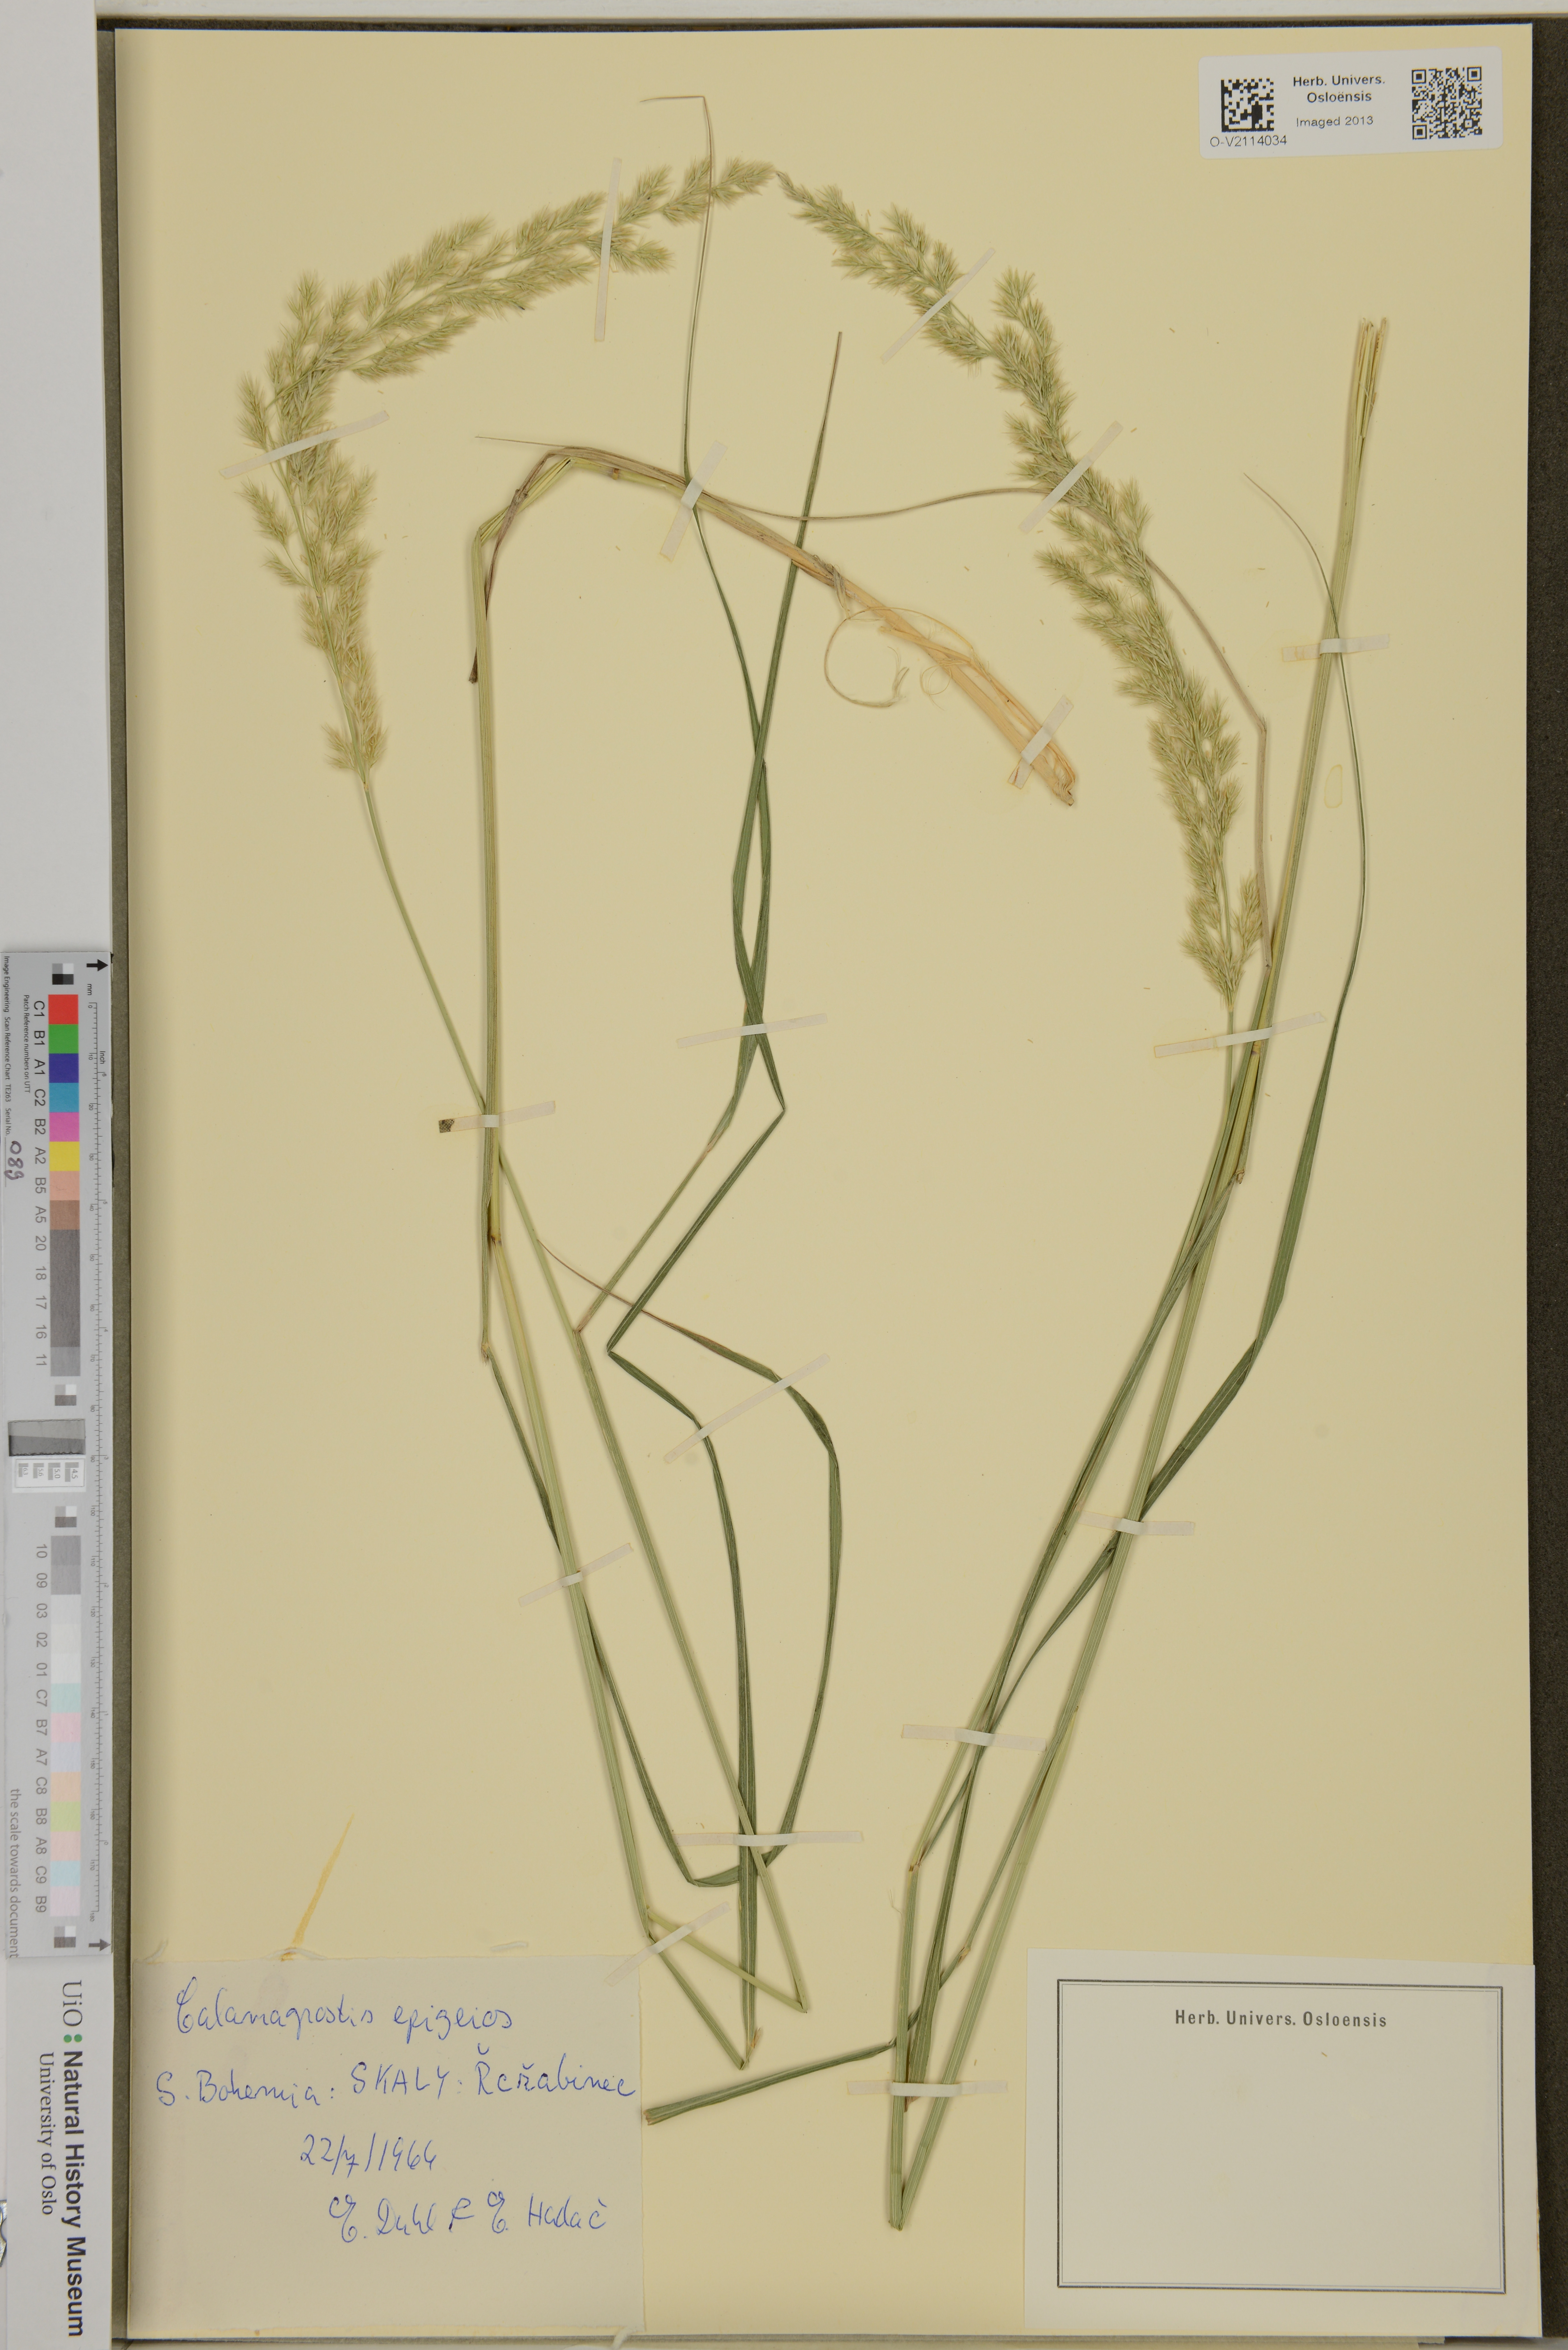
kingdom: Plantae
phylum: Tracheophyta
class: Liliopsida
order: Poales
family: Poaceae
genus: Calamagrostis
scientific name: Calamagrostis epigejos
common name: Wood small-reed
